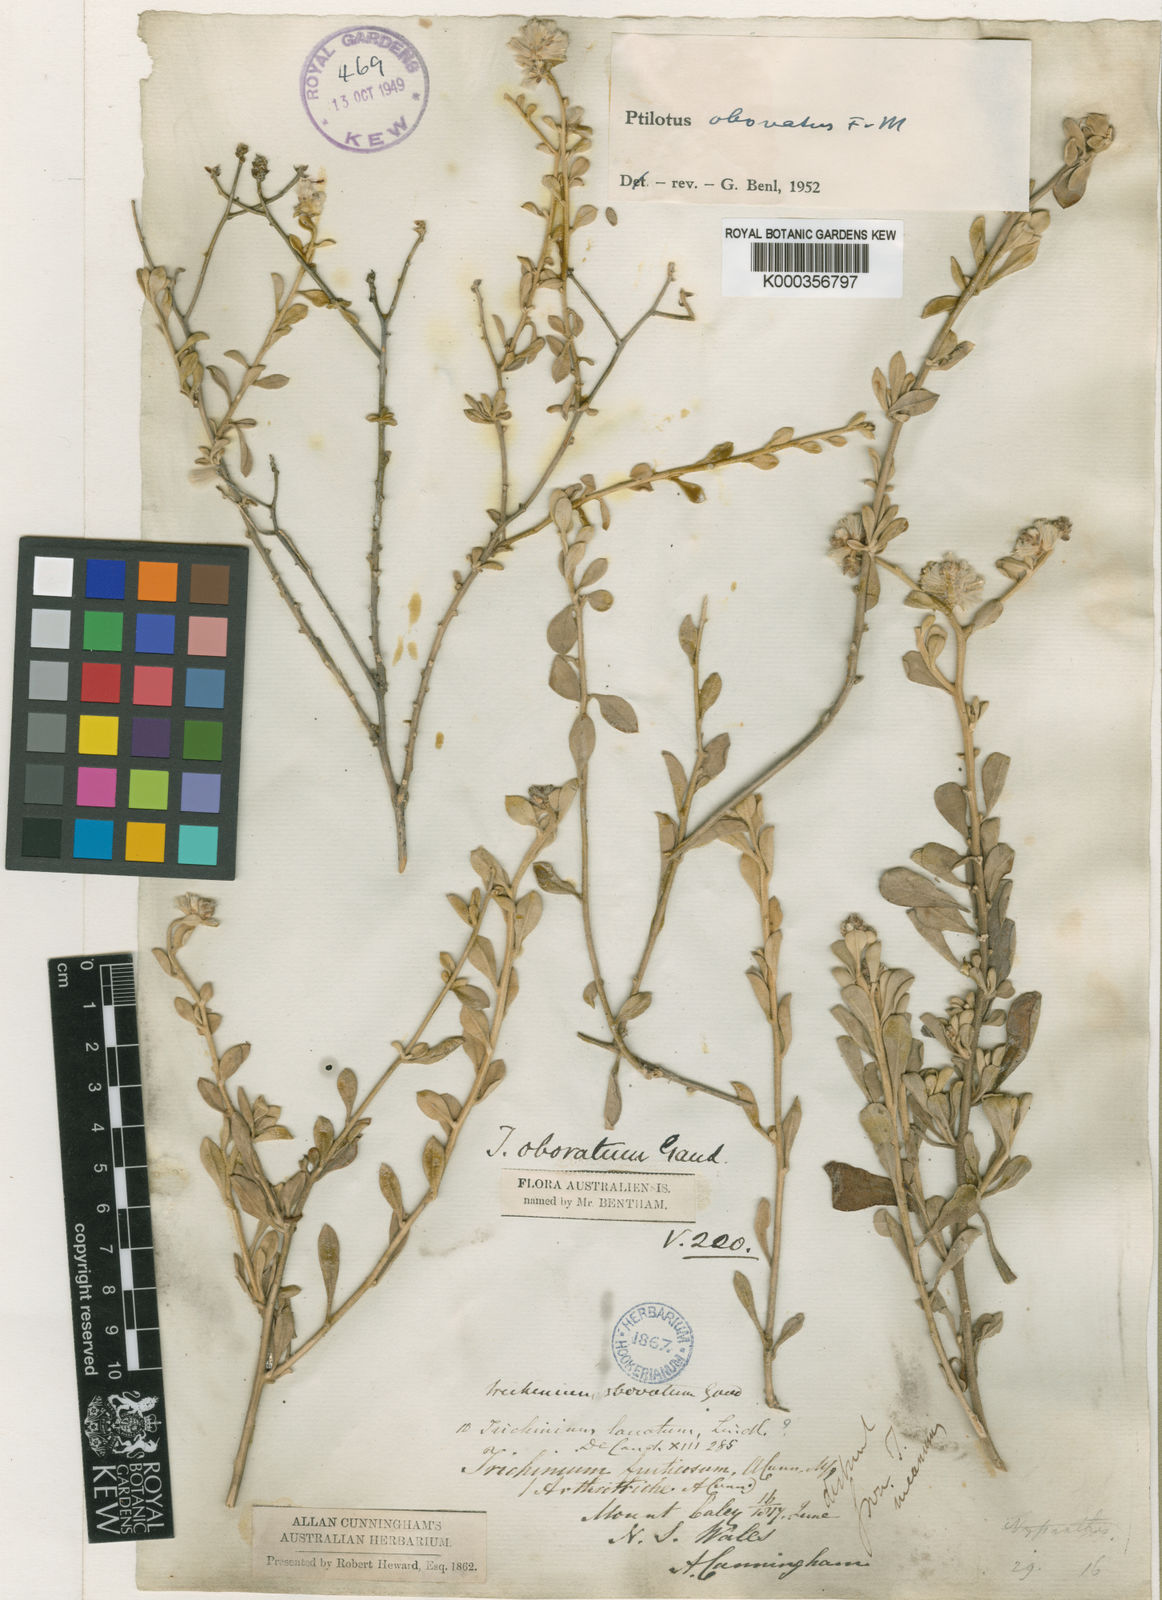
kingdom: Plantae
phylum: Tracheophyta
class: Magnoliopsida
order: Caryophyllales
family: Amaranthaceae
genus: Ptilotus
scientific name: Ptilotus obovatus
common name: Cottonbush
